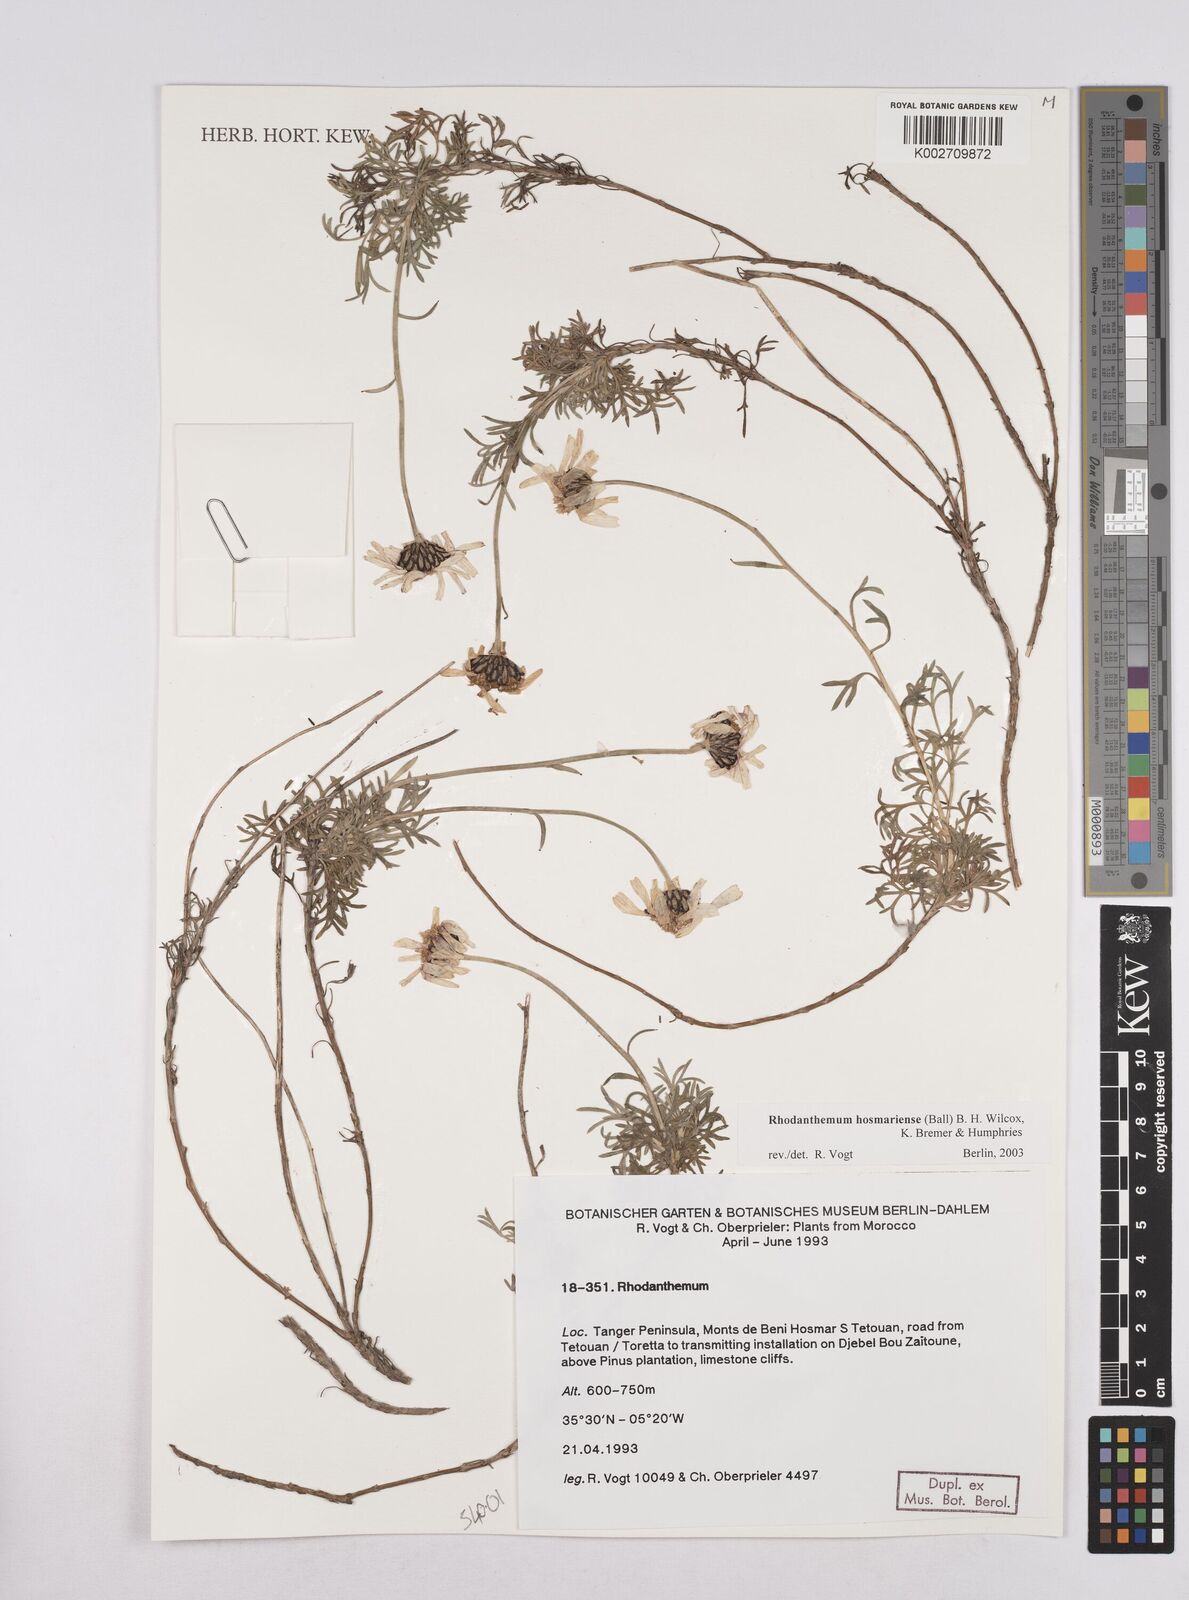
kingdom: Plantae
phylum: Tracheophyta
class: Magnoliopsida
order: Asterales
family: Asteraceae
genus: Rhodanthemum
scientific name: Rhodanthemum maresii
